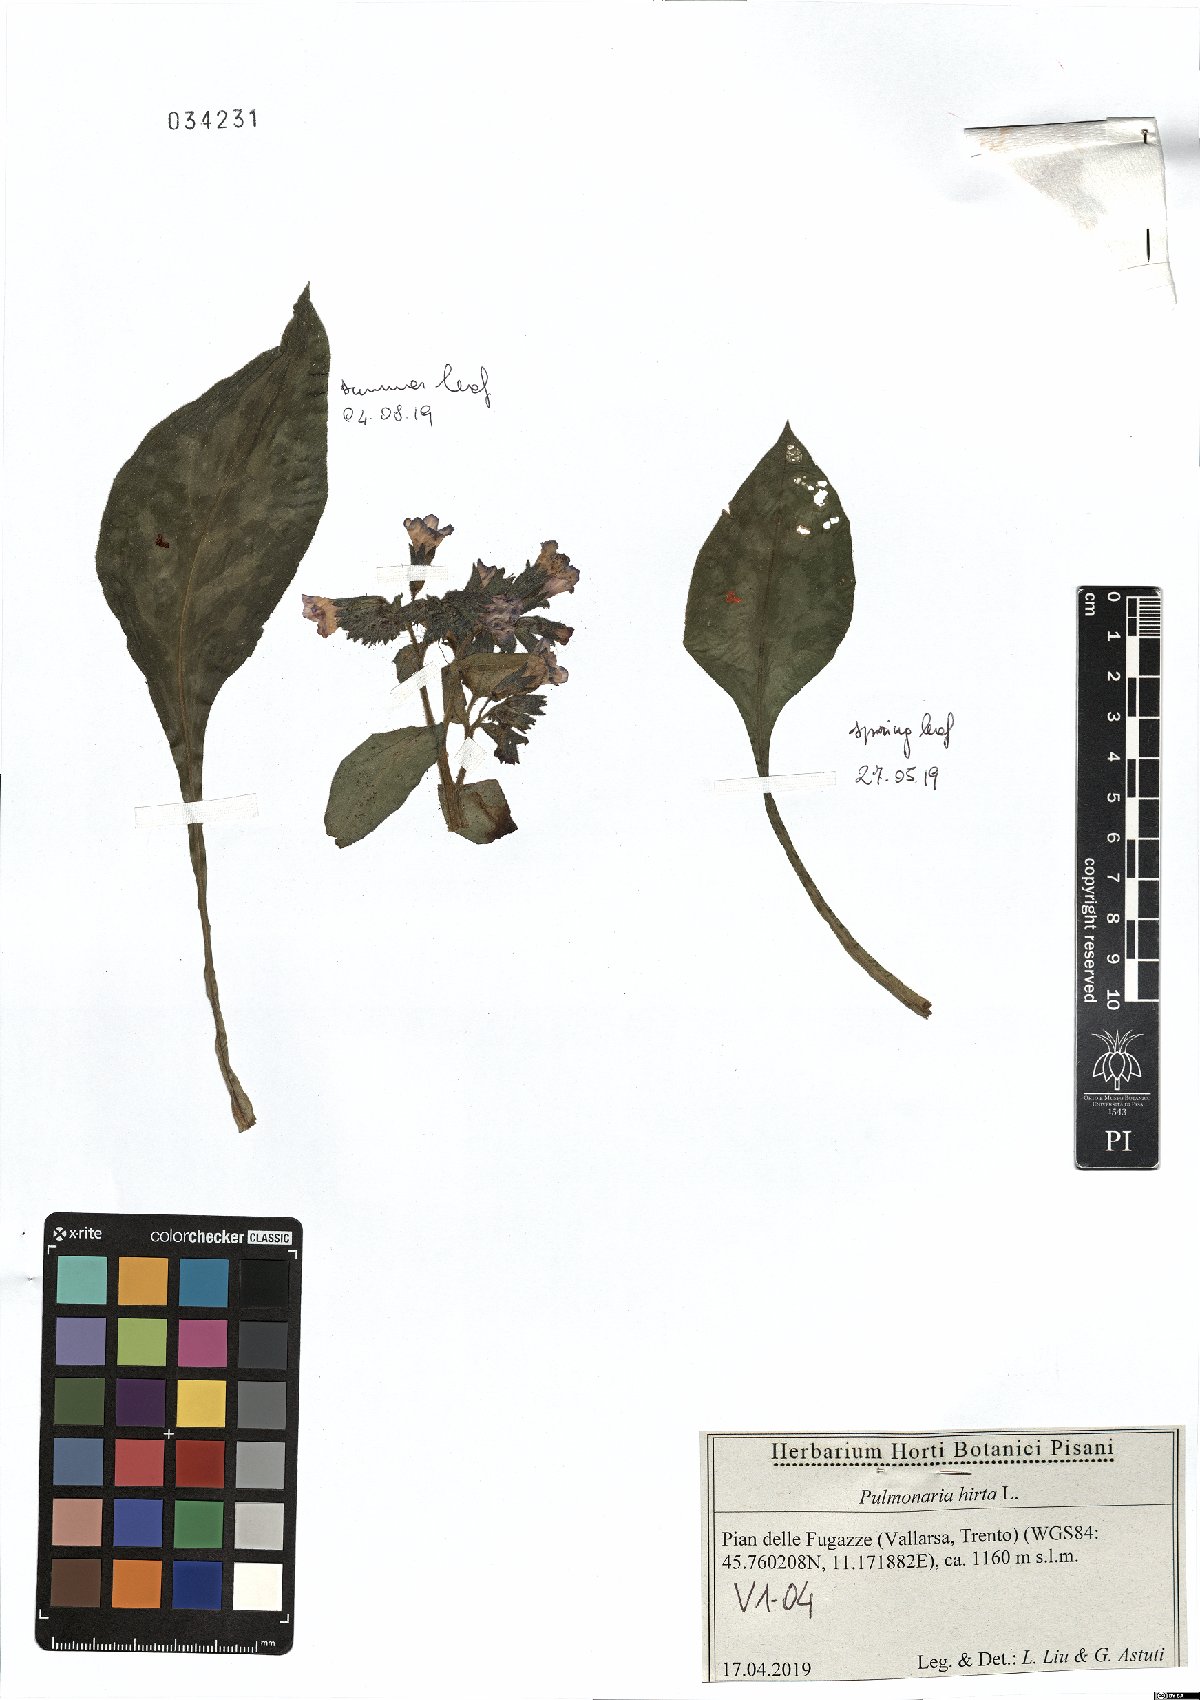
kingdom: Plantae
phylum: Tracheophyta
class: Magnoliopsida
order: Boraginales
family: Boraginaceae
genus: Pulmonaria
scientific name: Pulmonaria hirta
